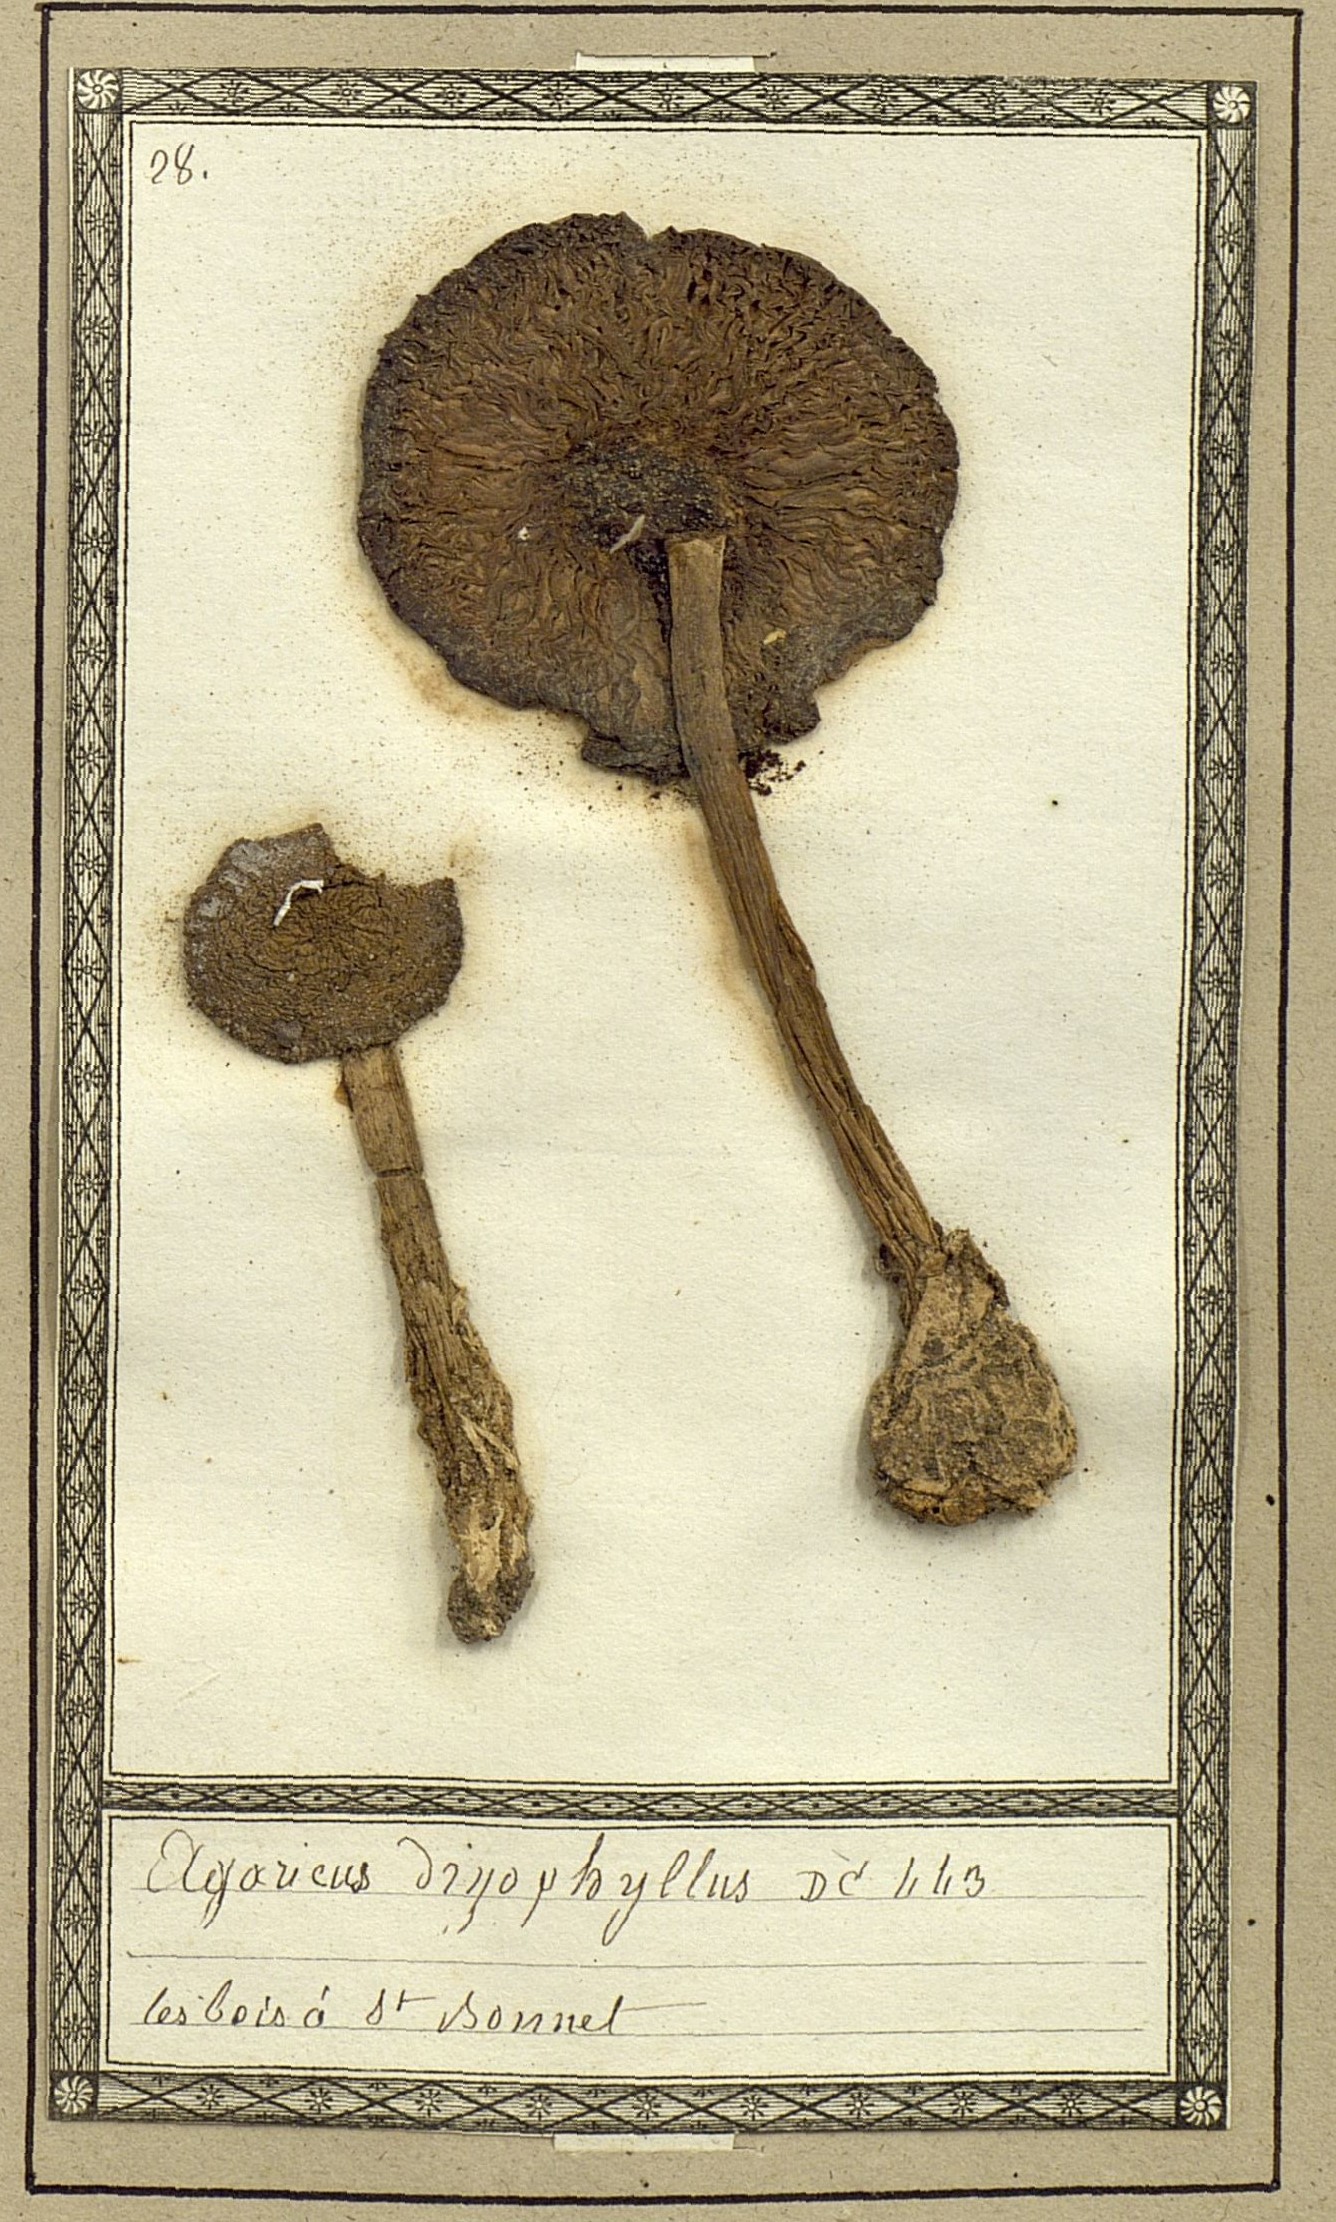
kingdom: Fungi
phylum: Basidiomycota
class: Agaricomycetes
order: Agaricales
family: Omphalotaceae
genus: Gymnopus
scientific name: Gymnopus dryophilus
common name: Penny top
